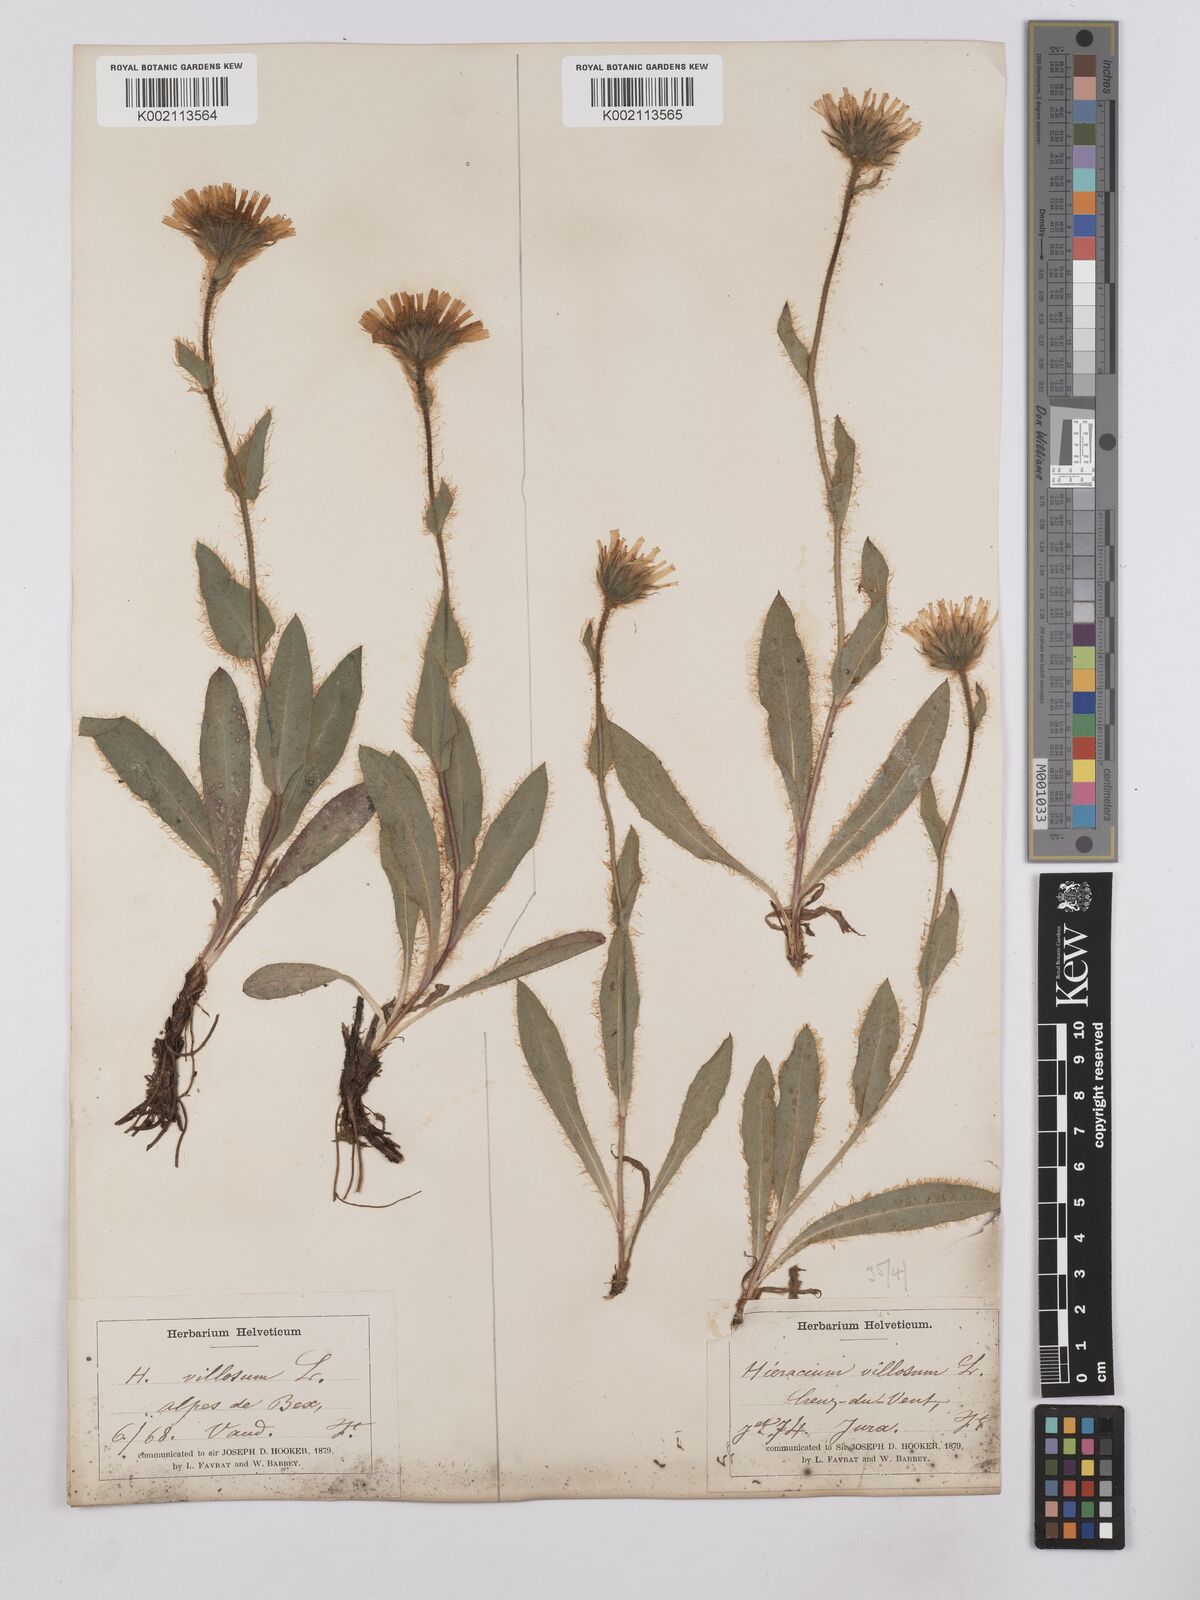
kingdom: Plantae
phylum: Tracheophyta
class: Magnoliopsida
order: Asterales
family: Asteraceae
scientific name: Asteraceae
